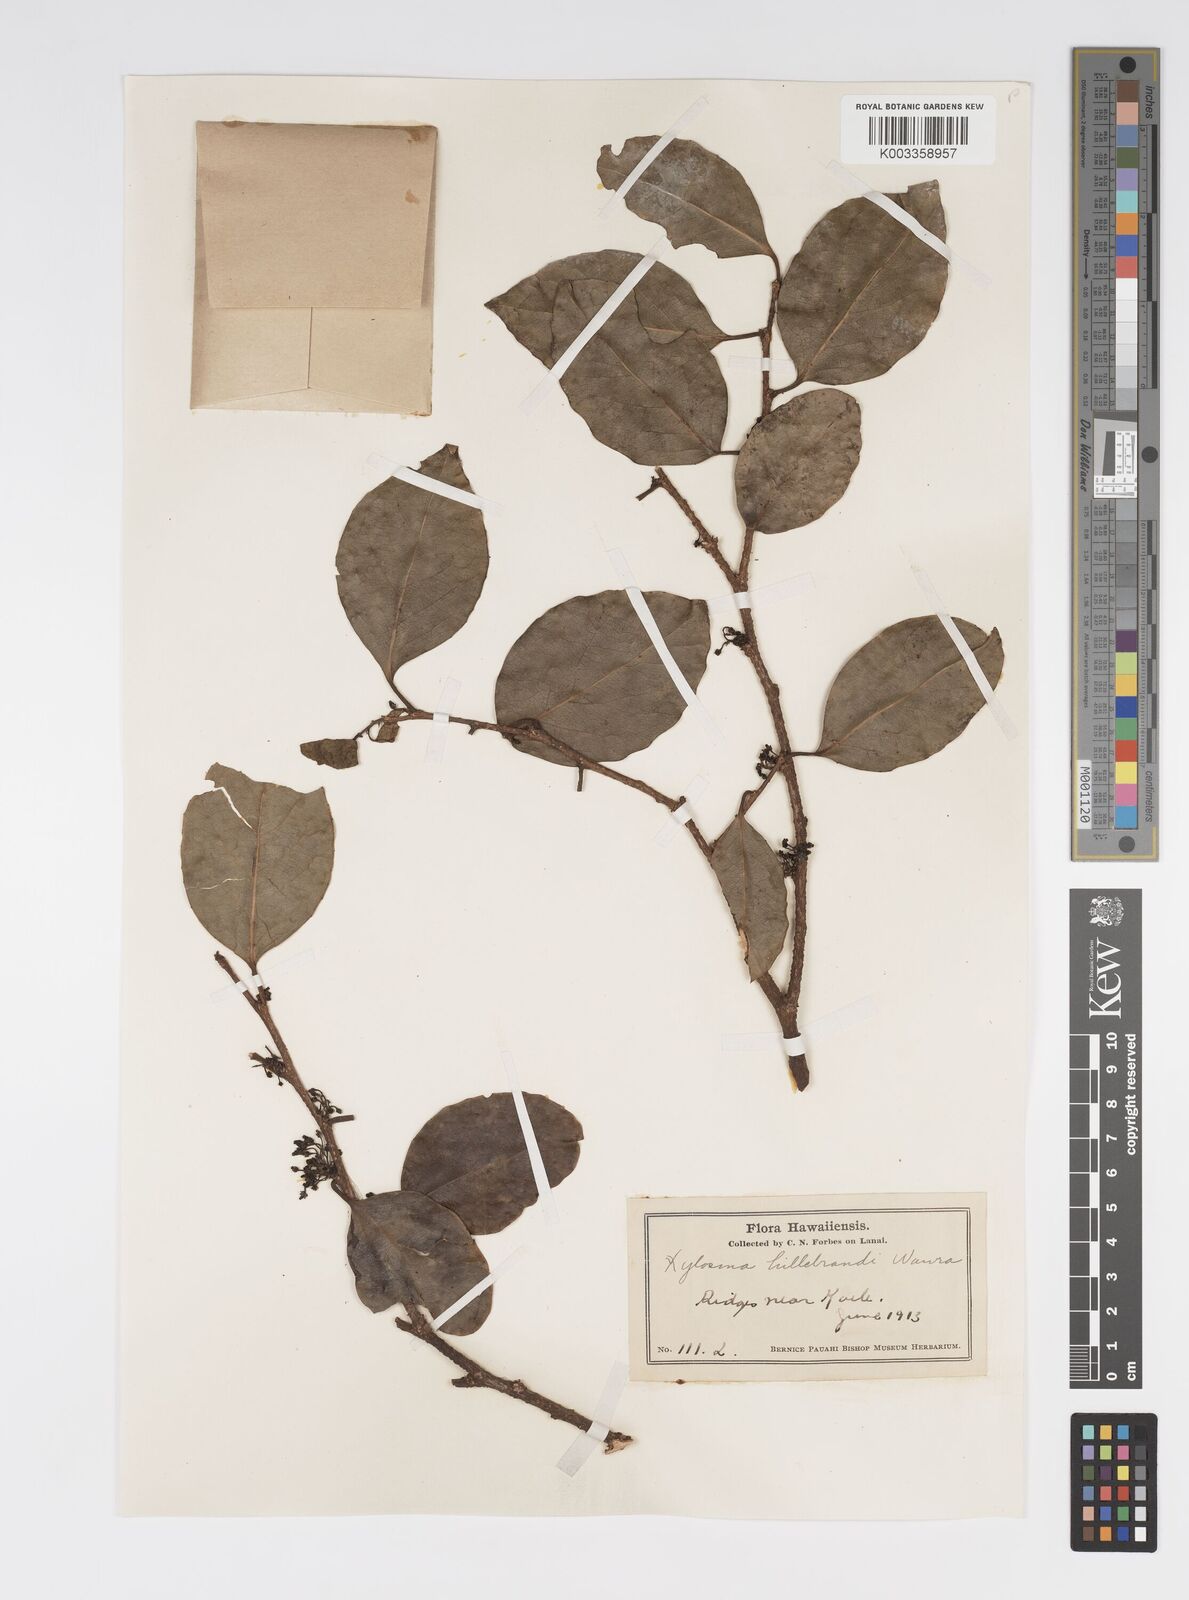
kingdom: Plantae
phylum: Tracheophyta
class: Magnoliopsida
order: Malpighiales
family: Salicaceae
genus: Xylosma
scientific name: Xylosma hawaiense
